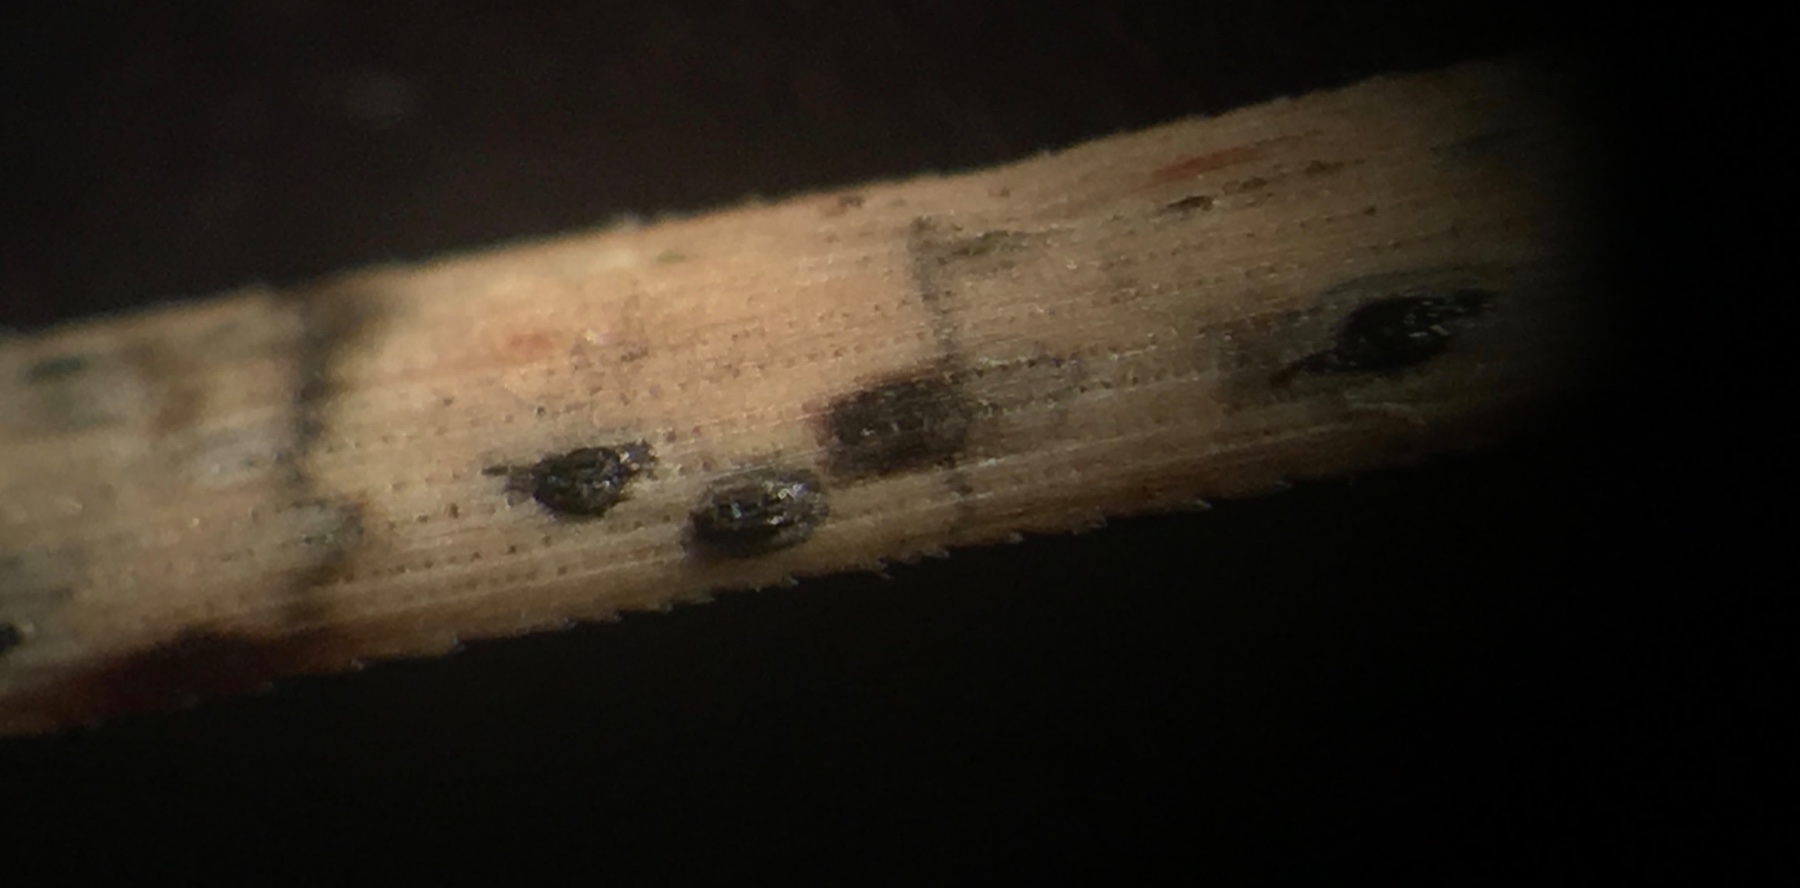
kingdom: Fungi
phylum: Ascomycota
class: Leotiomycetes
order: Rhytismatales
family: Rhytismataceae
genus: Lophodermium
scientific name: Lophodermium pinastri
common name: fyrre-fureplet
